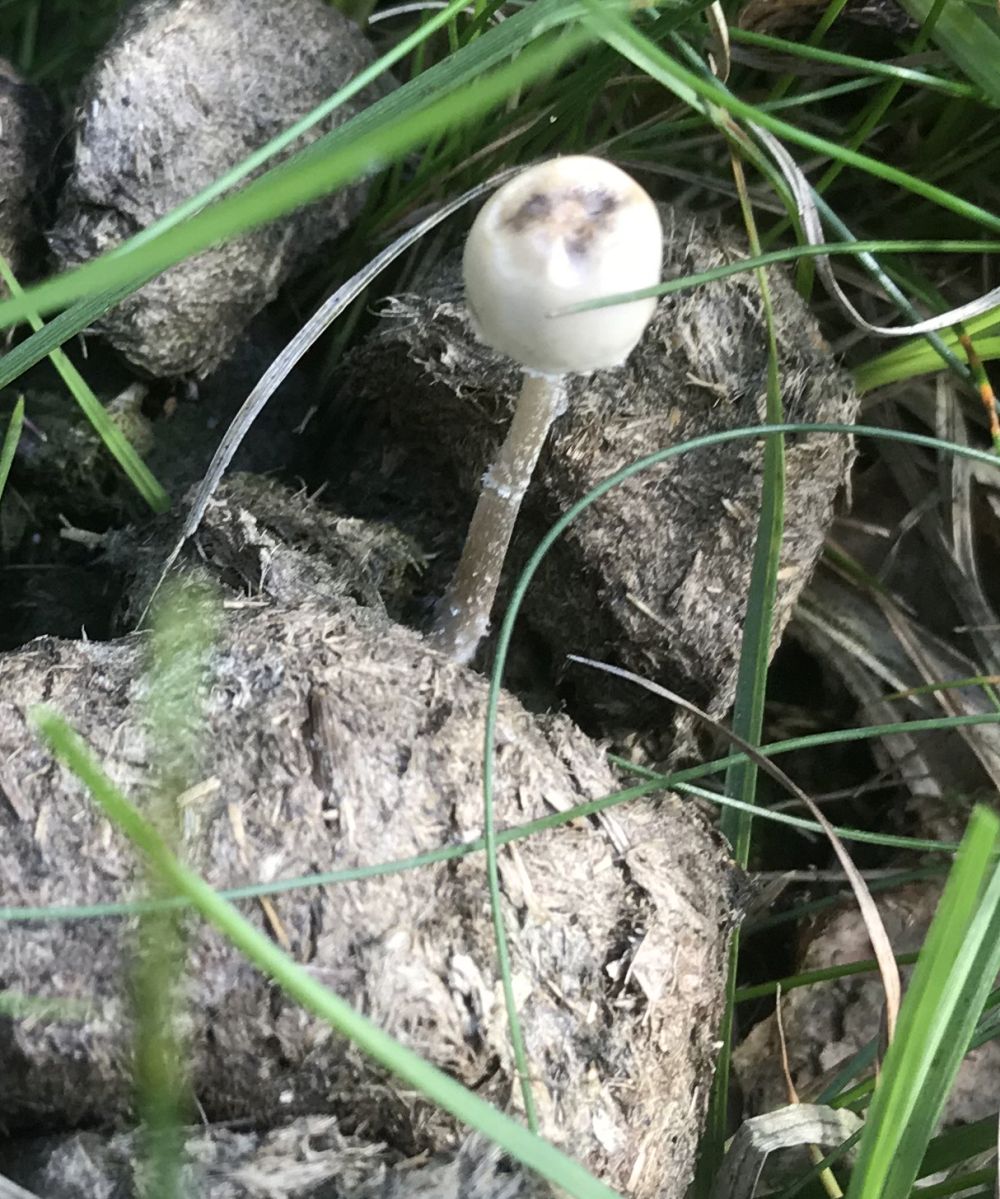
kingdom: Fungi
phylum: Basidiomycota
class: Agaricomycetes
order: Agaricales
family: Bolbitiaceae
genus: Panaeolus
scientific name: Panaeolus
